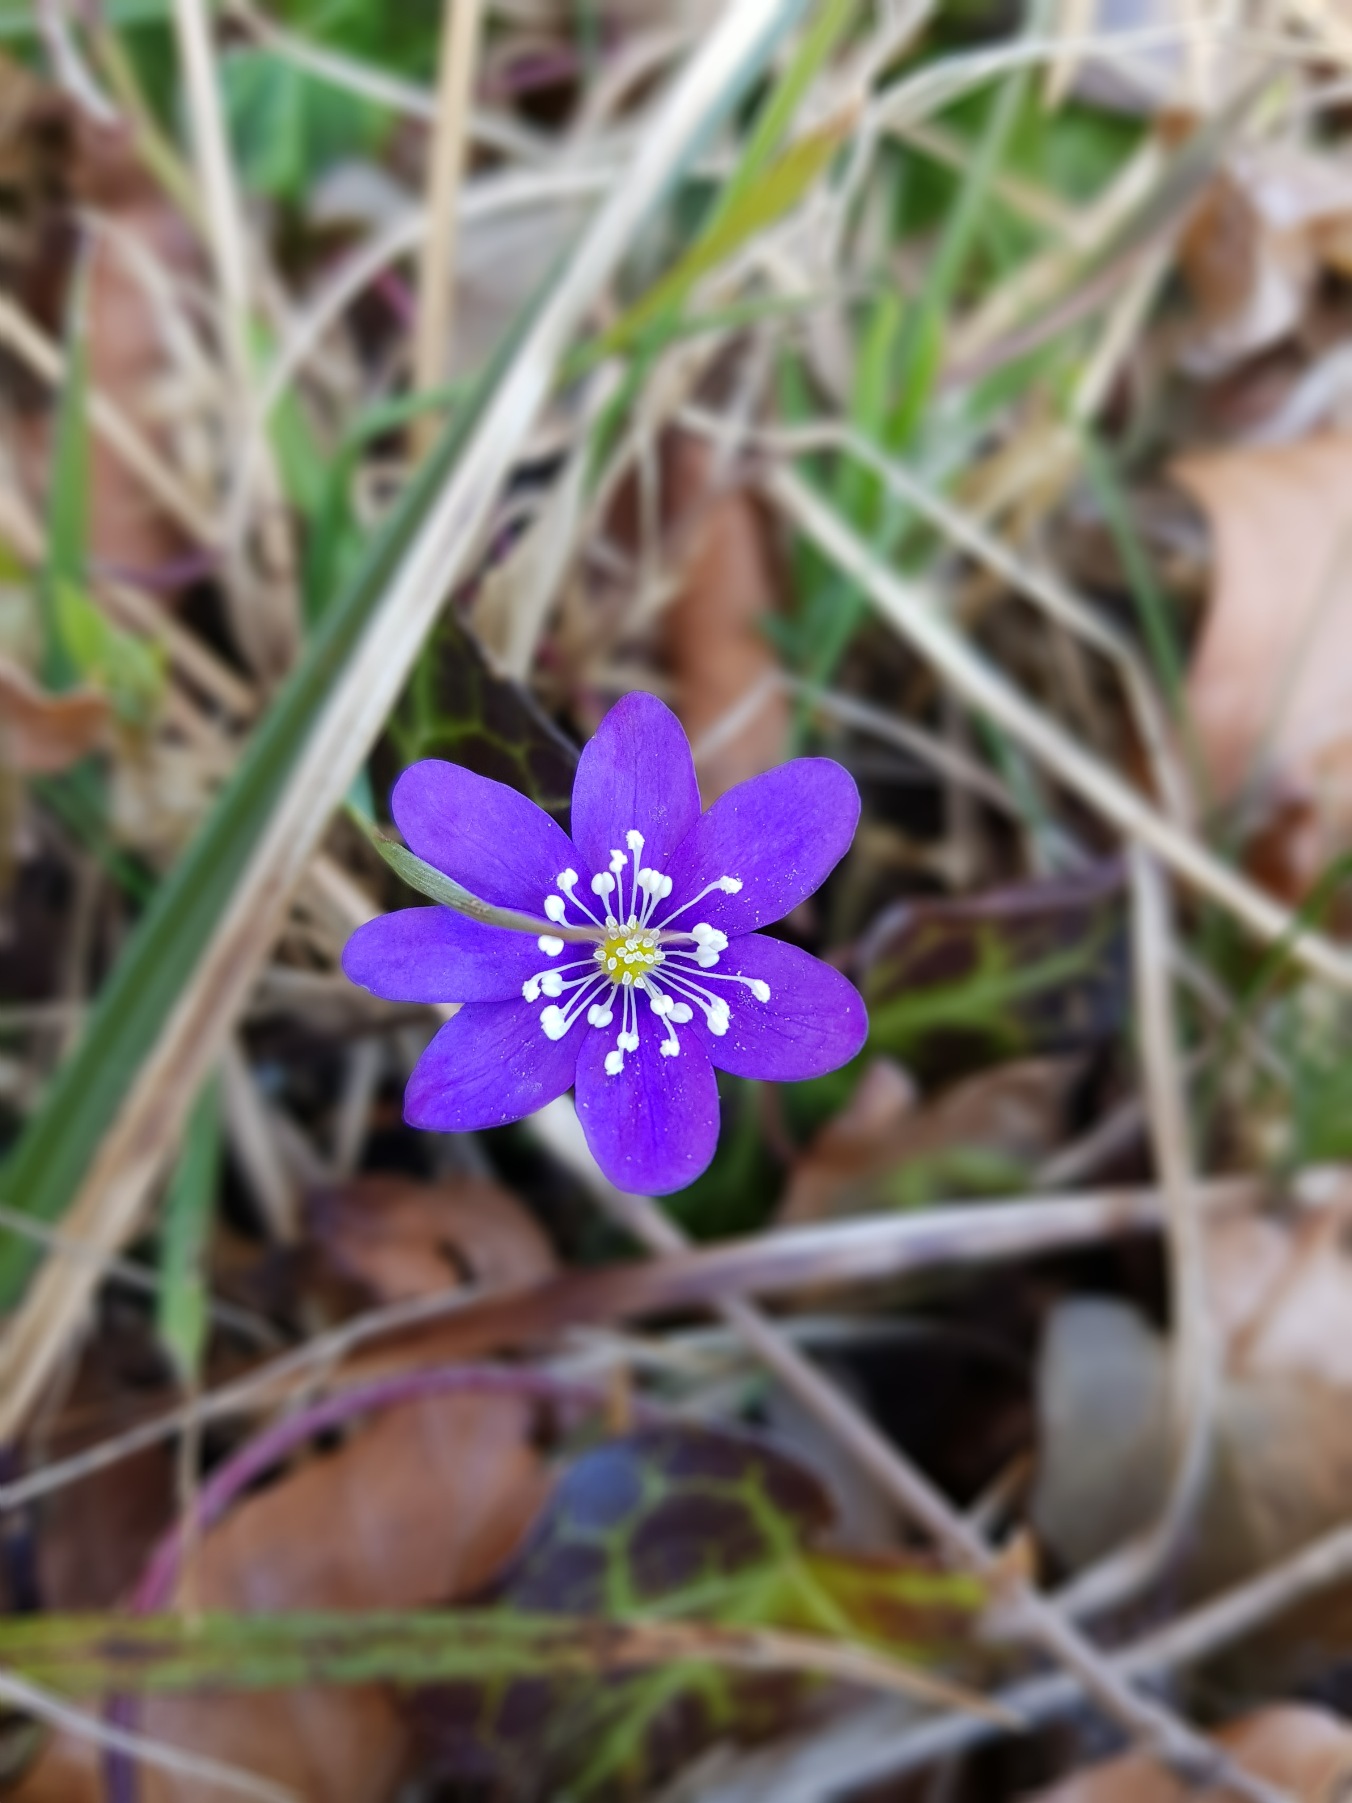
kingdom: Plantae
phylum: Tracheophyta
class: Magnoliopsida
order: Ranunculales
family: Ranunculaceae
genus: Hepatica
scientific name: Hepatica nobilis
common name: Blå anemone
